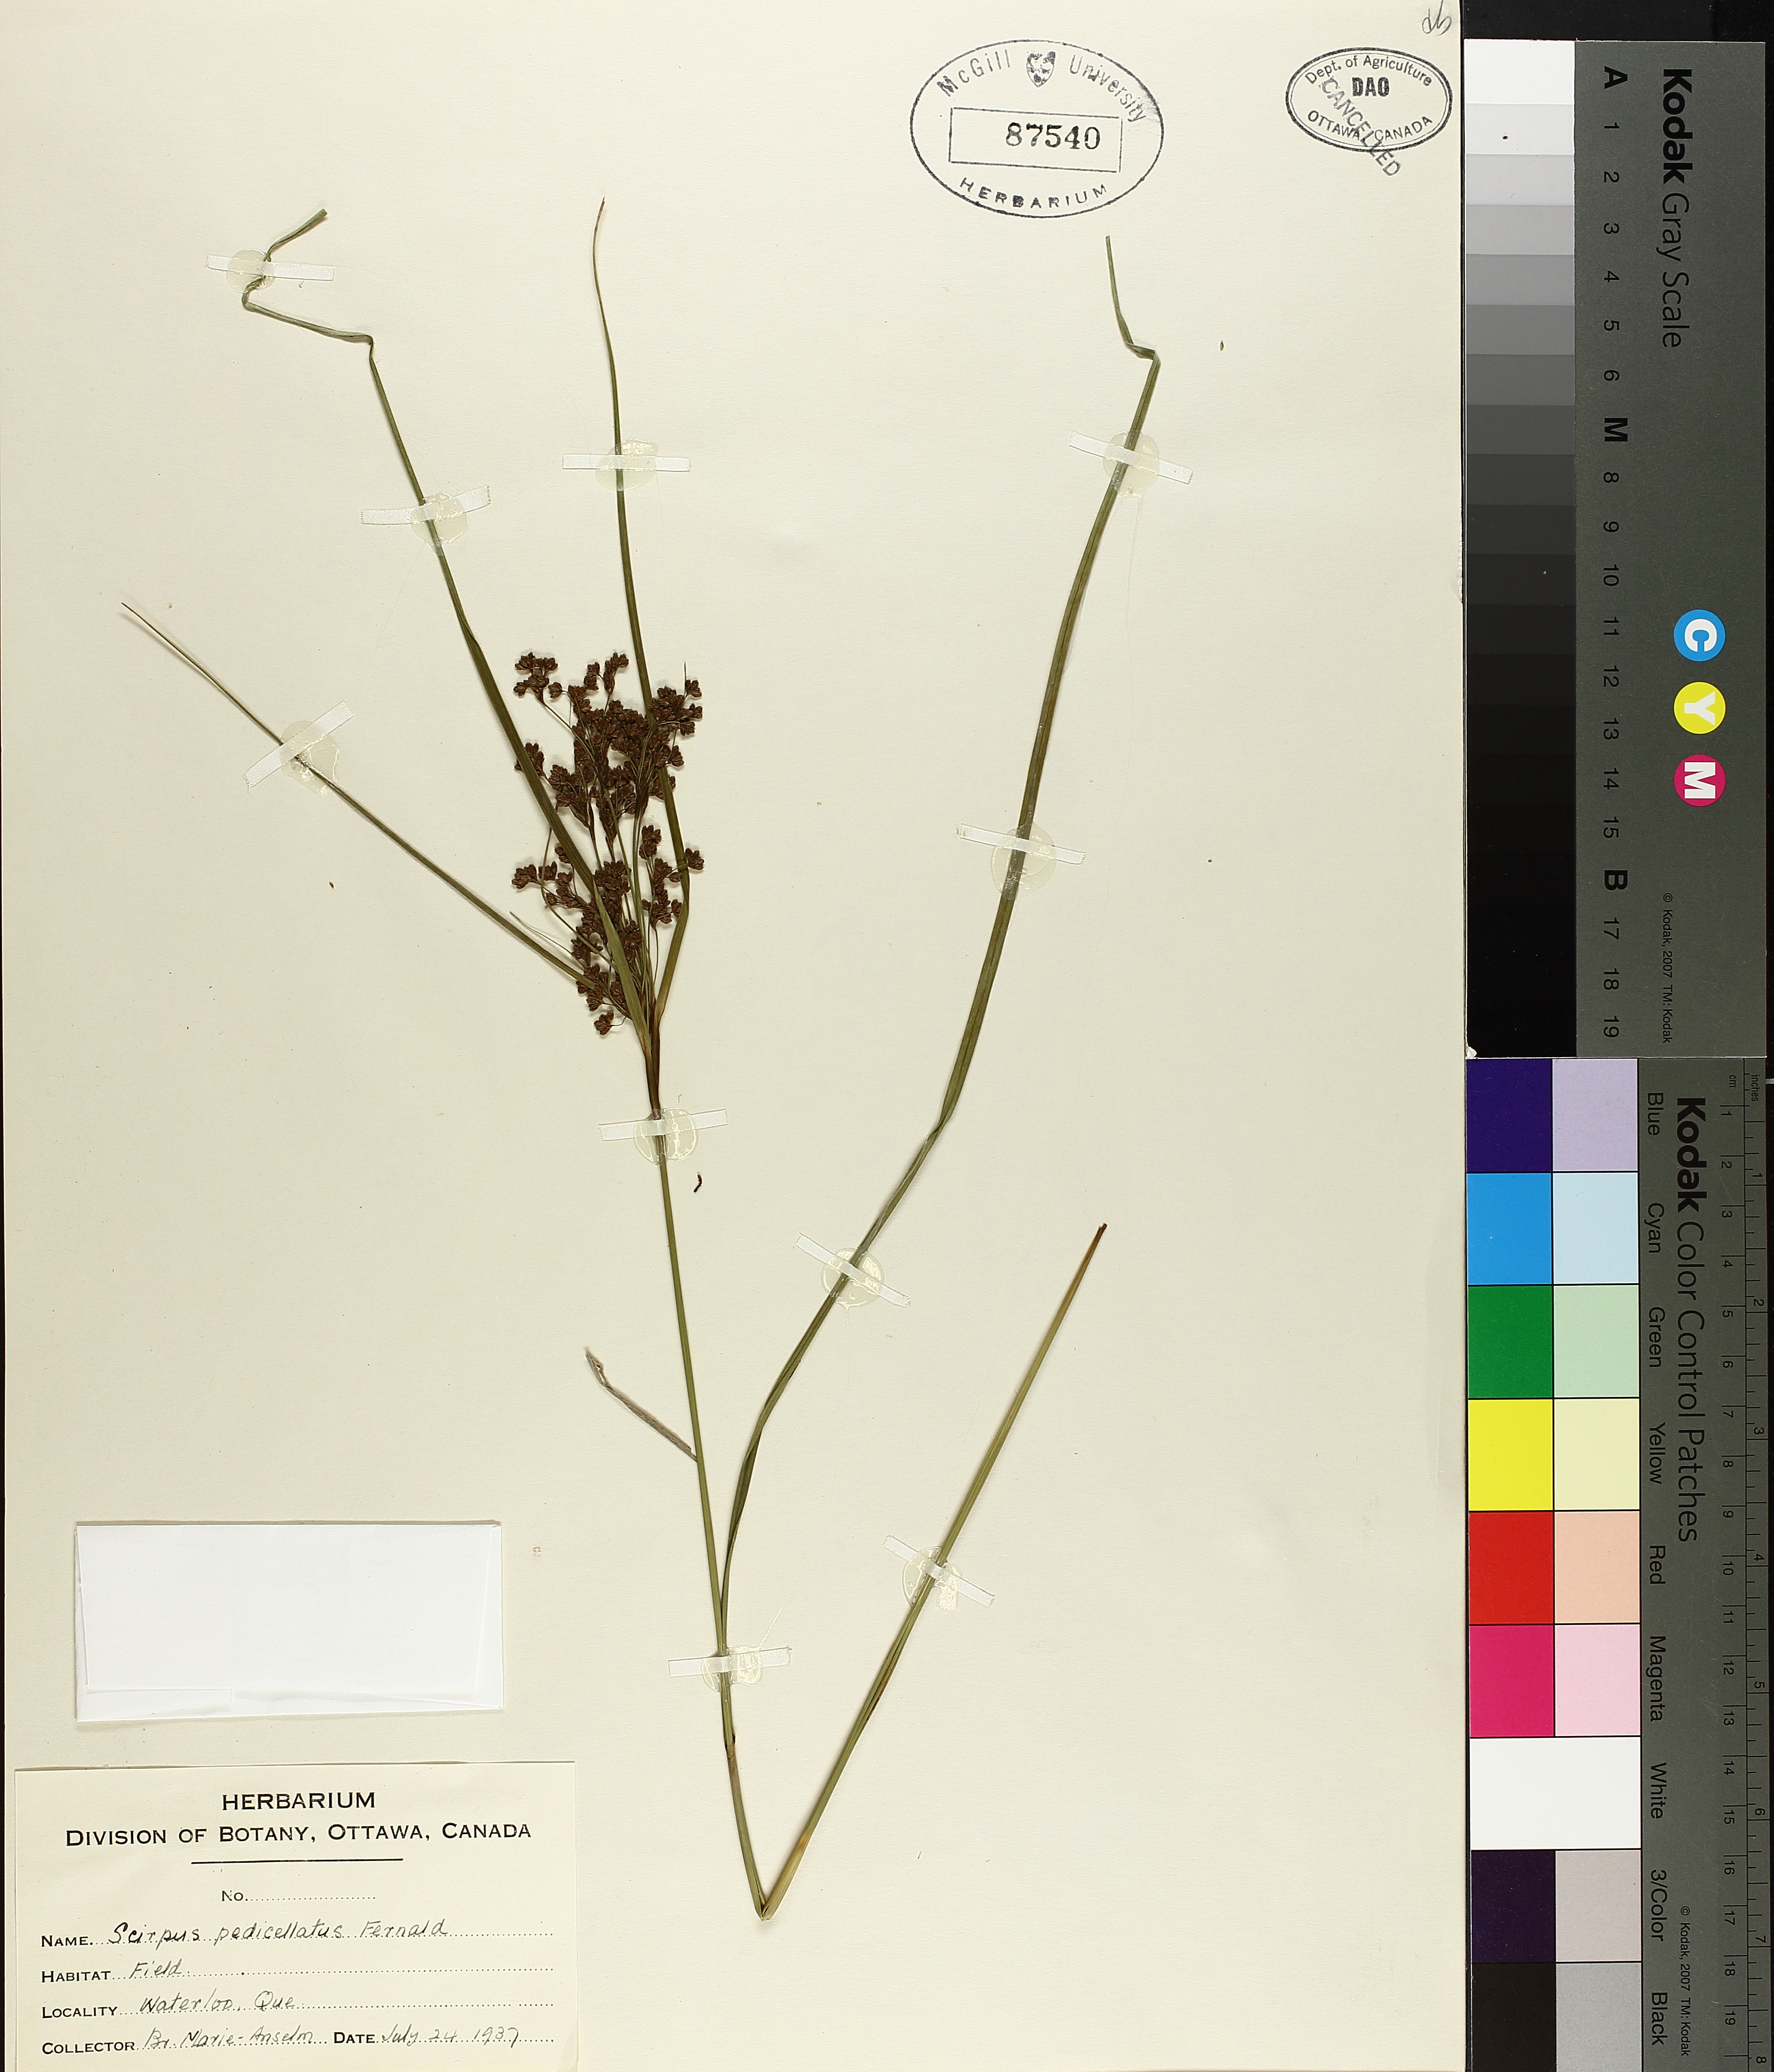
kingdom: Plantae
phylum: Tracheophyta
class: Liliopsida
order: Poales
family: Cyperaceae
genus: Scirpus
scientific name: Scirpus pedicellatus
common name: Pedicelled bulrush
